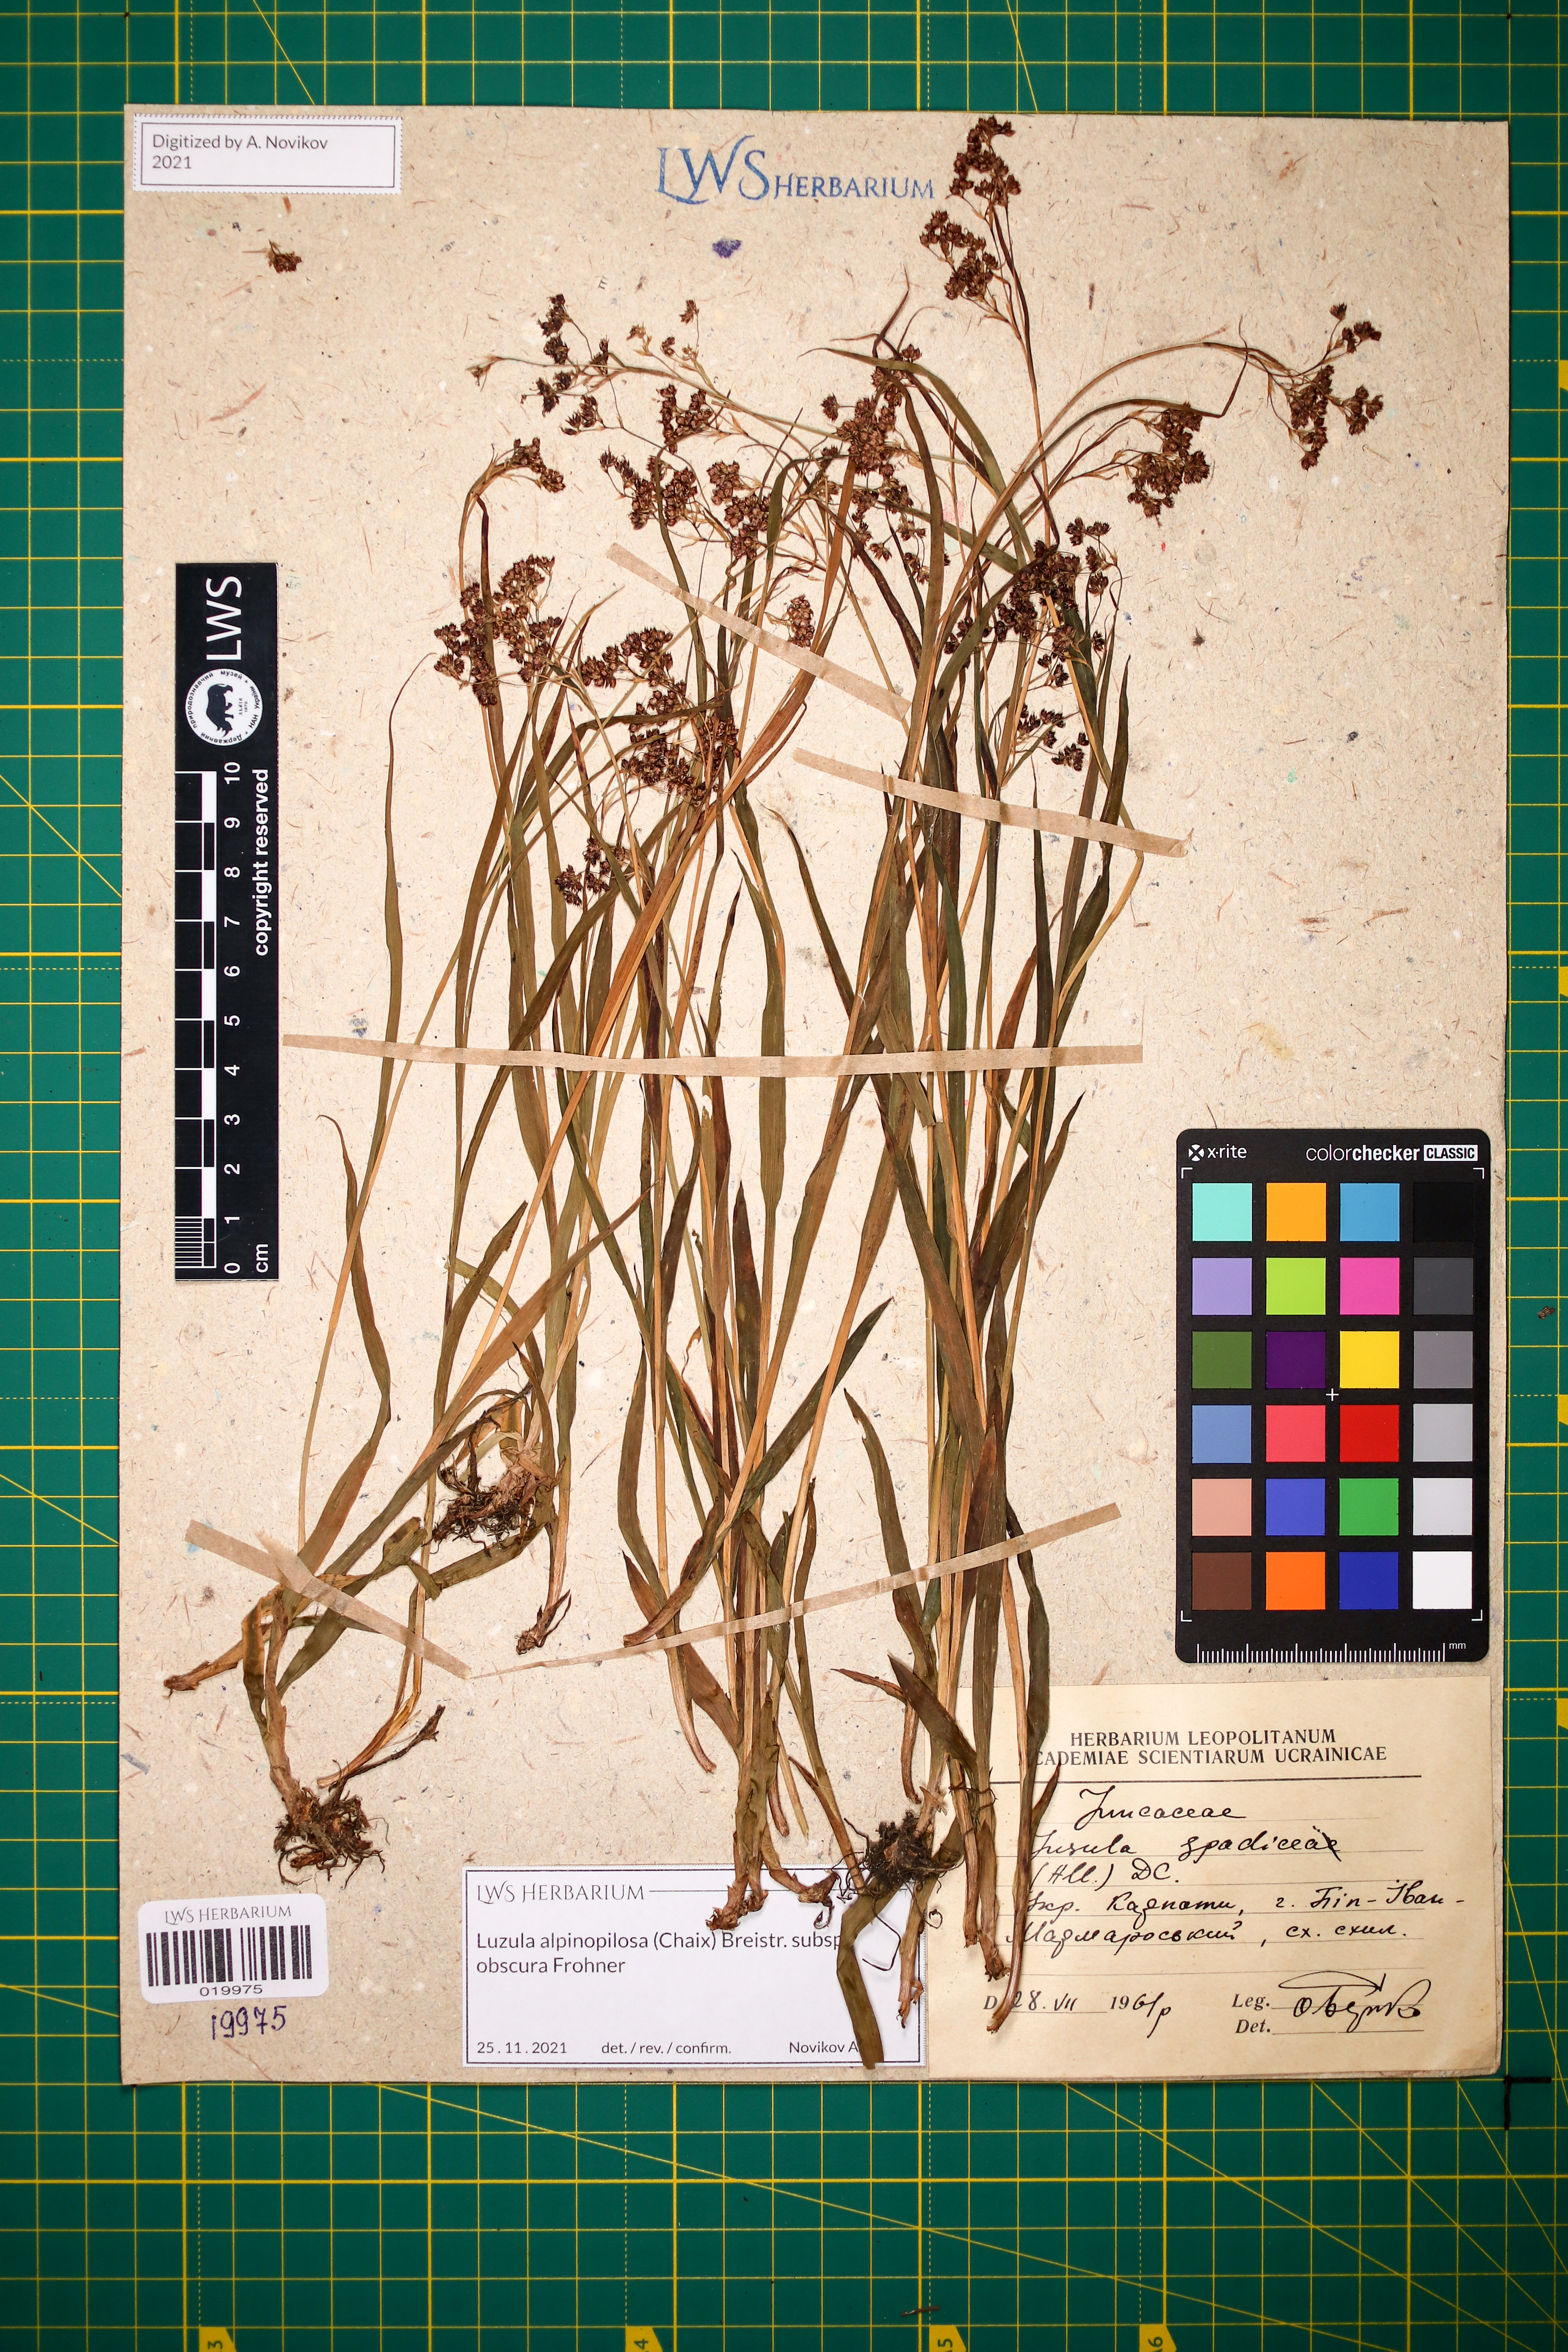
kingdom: Plantae
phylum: Tracheophyta
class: Liliopsida
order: Poales
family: Juncaceae
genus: Luzula
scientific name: Luzula alpinopilosa
